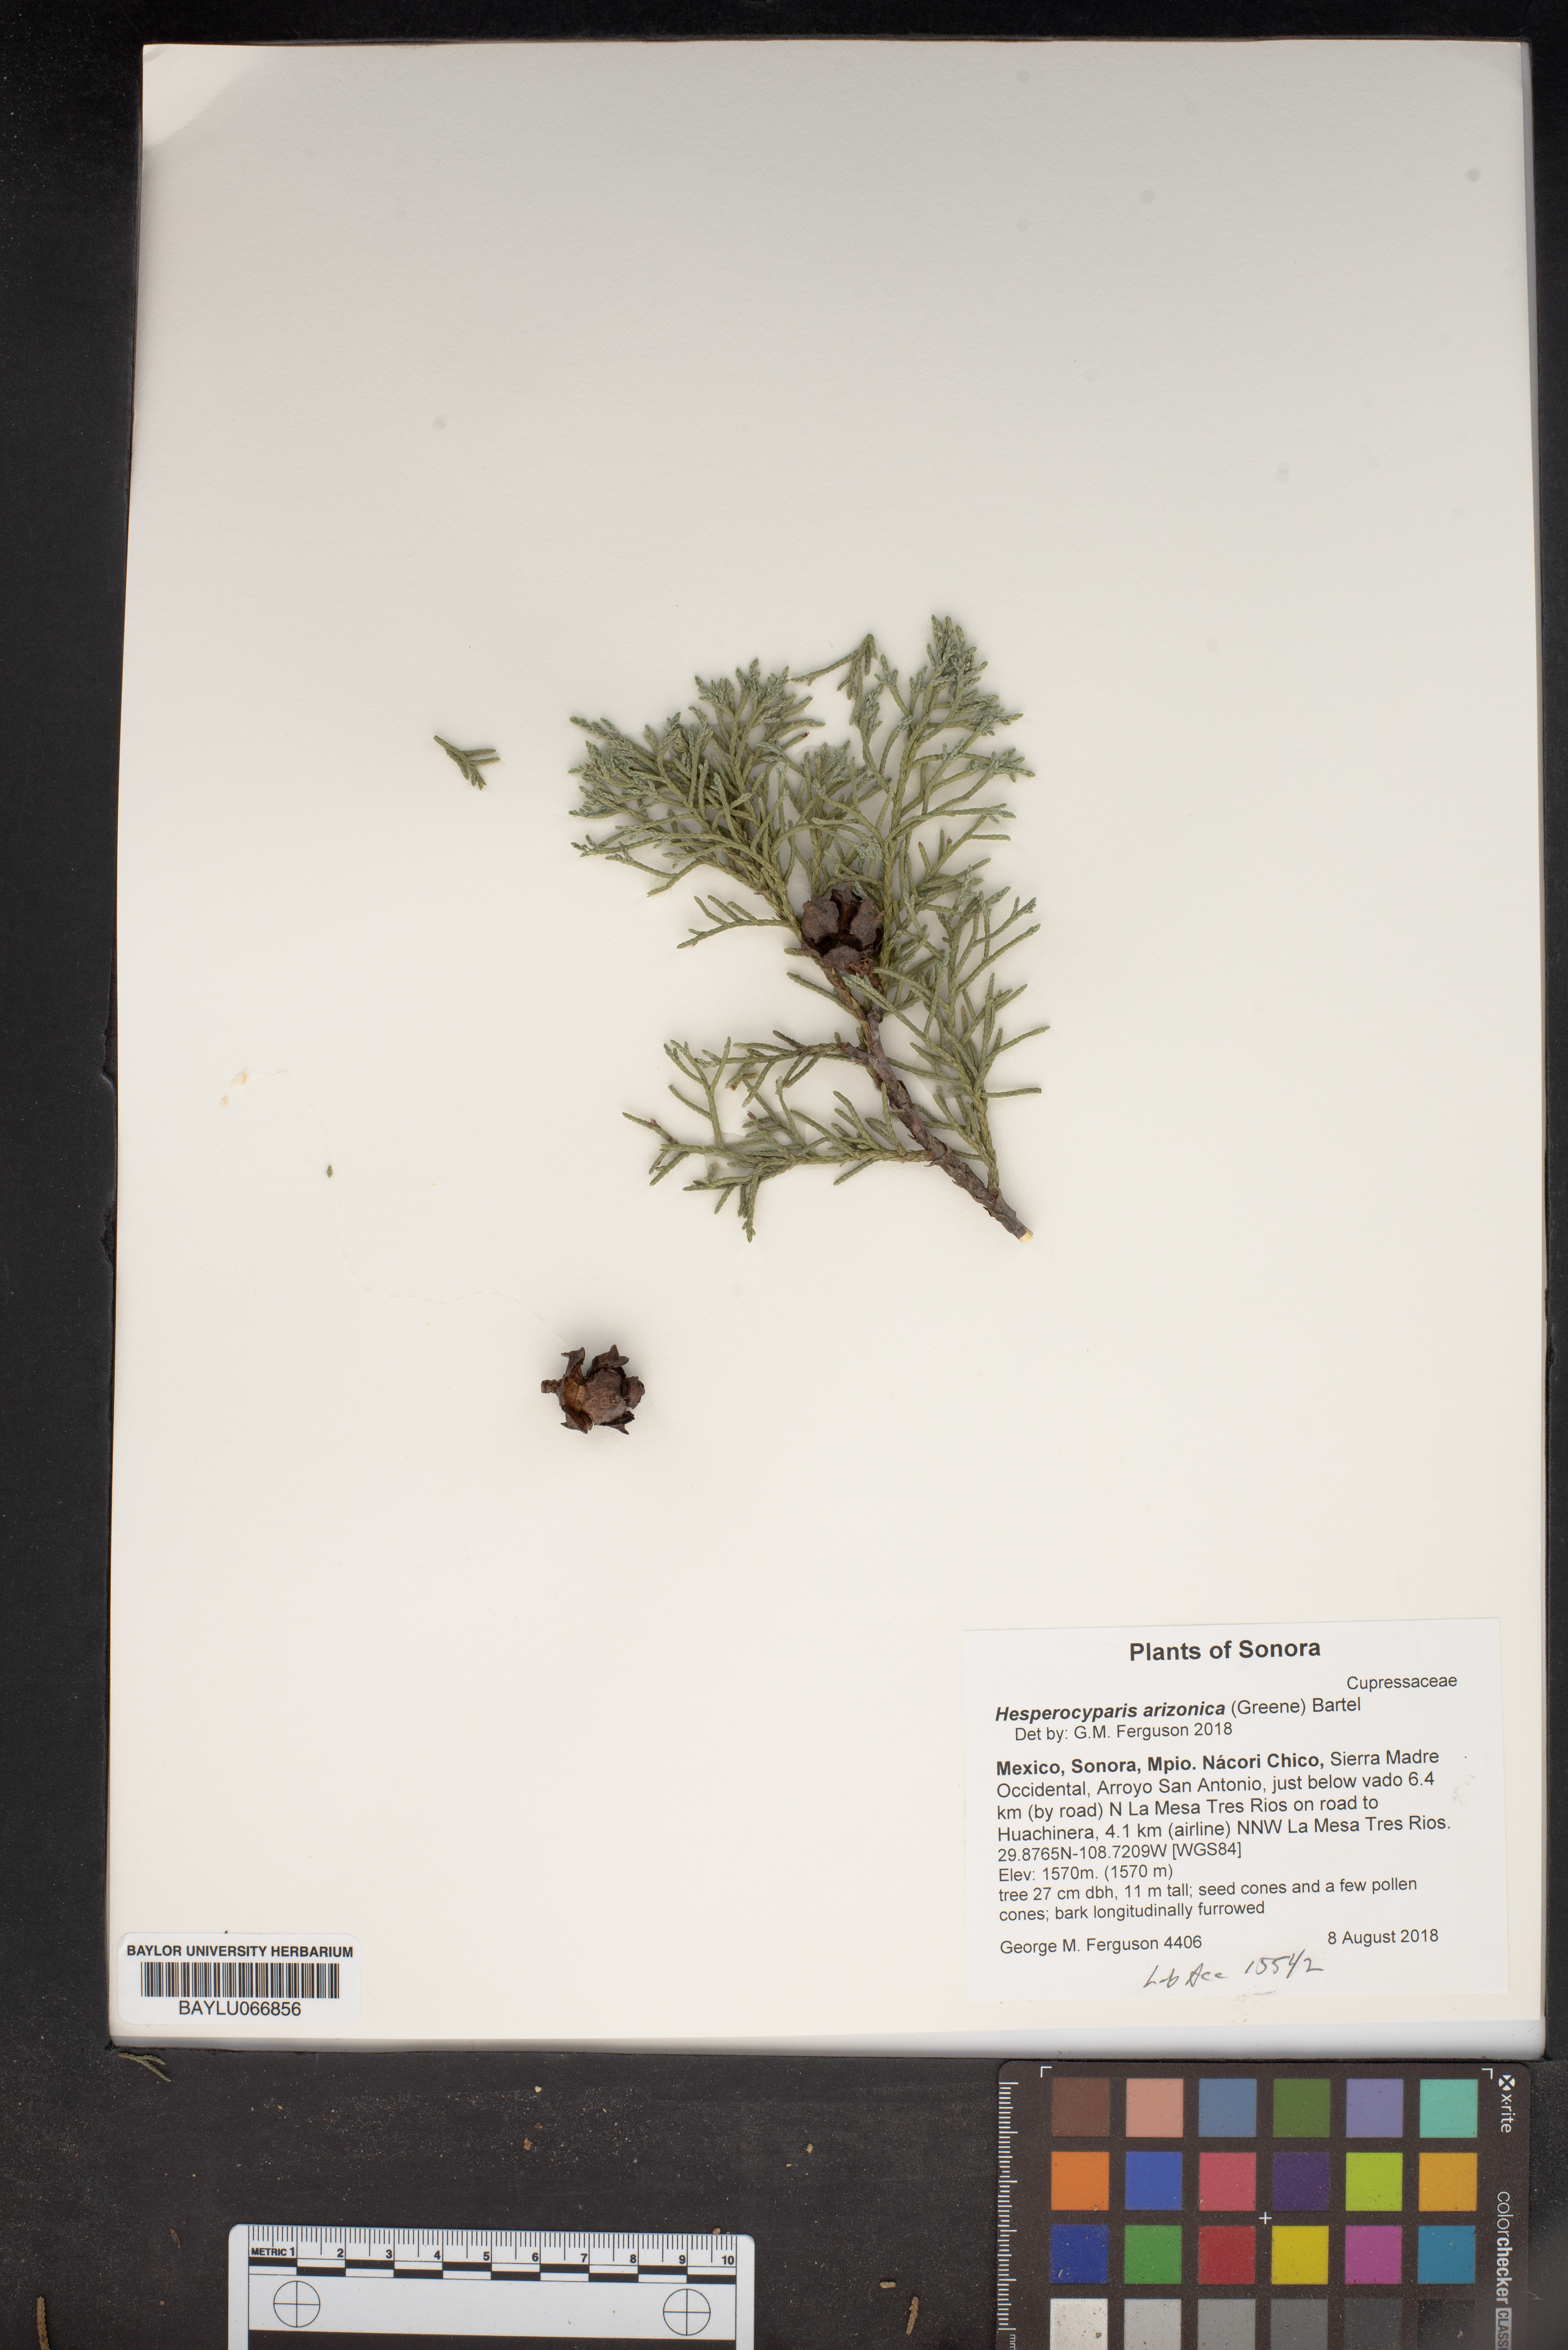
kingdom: Plantae
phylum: Tracheophyta
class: Pinopsida
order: Pinales
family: Cupressaceae
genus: Cupressus
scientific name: Cupressus arizonica
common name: Arizona cypress
